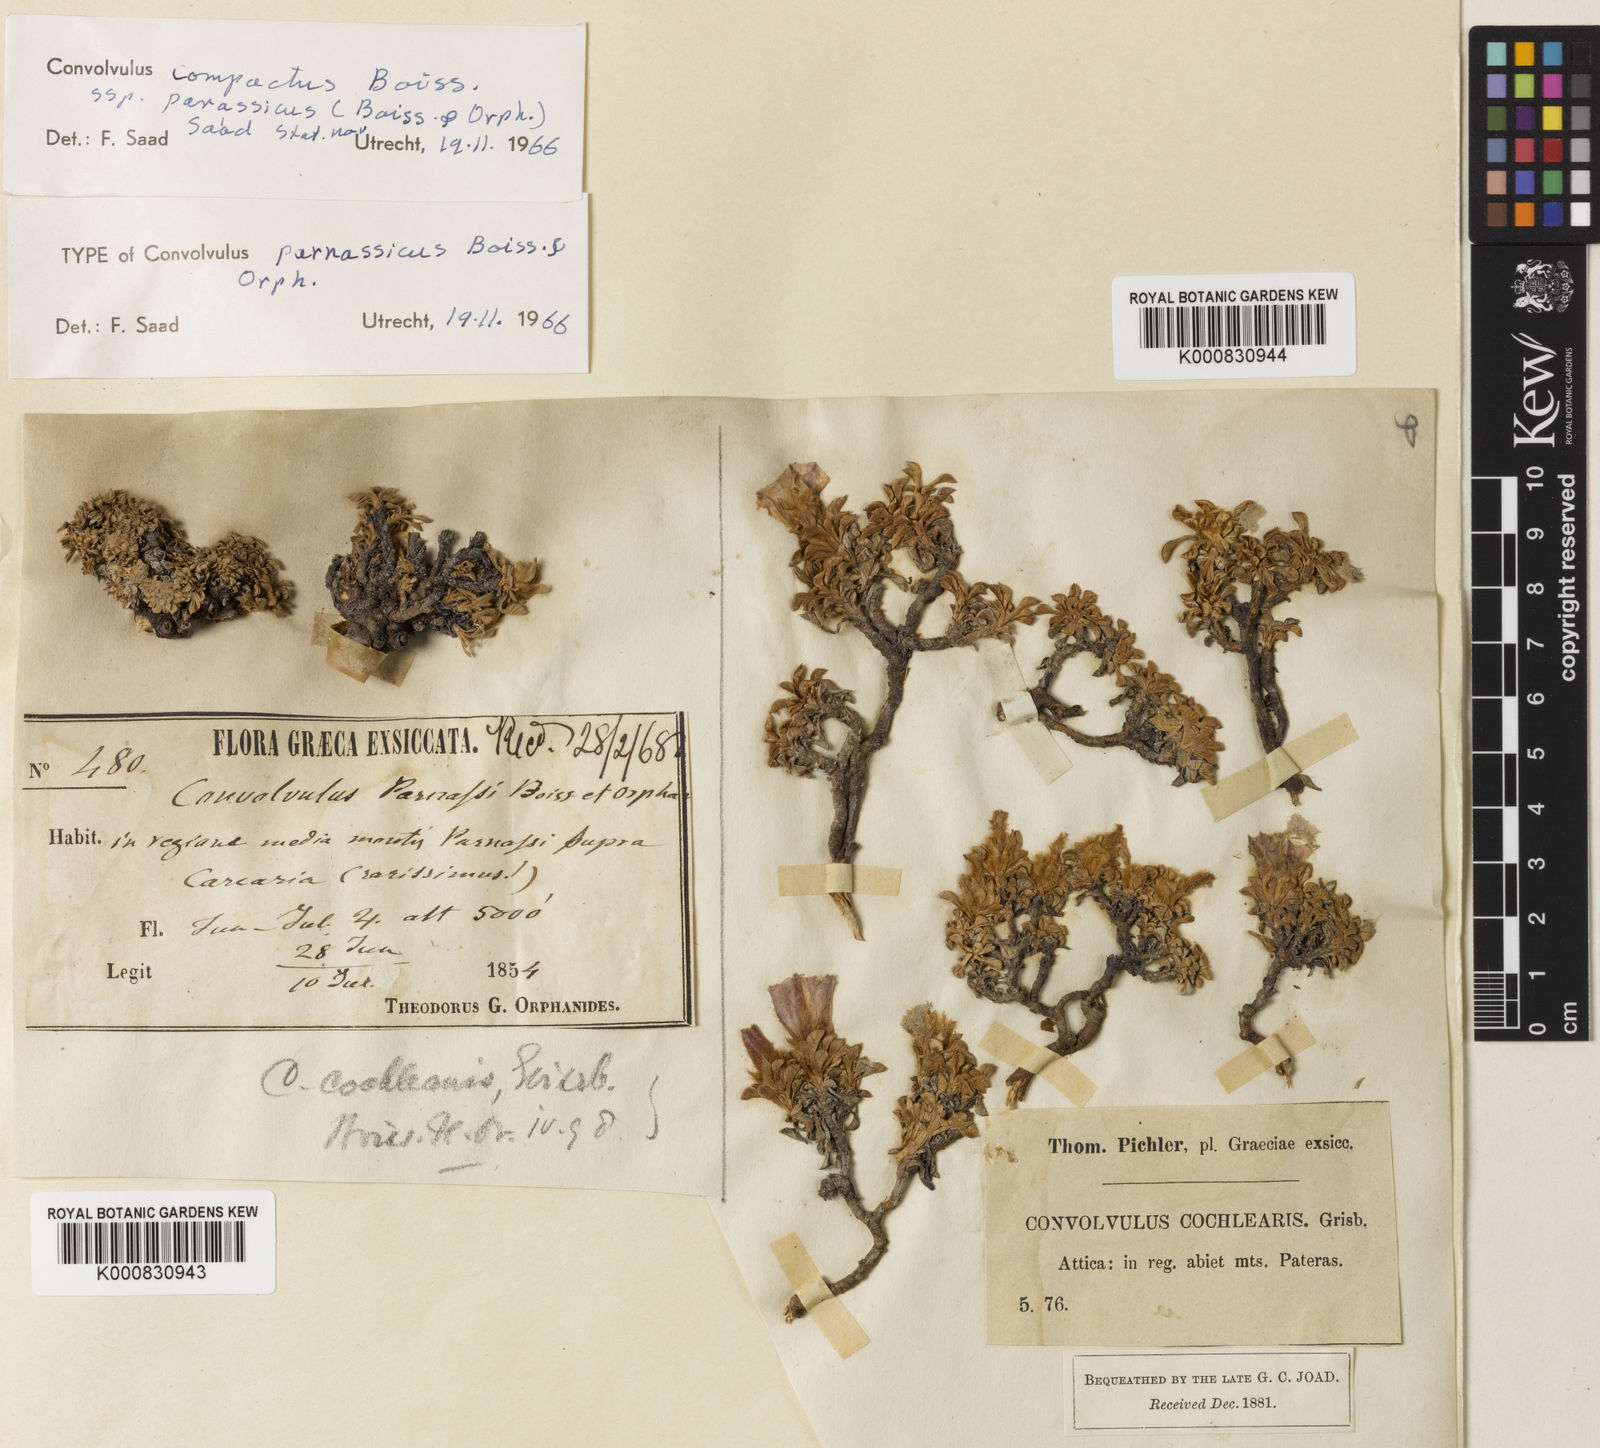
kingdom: Plantae
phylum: Tracheophyta
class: Magnoliopsida
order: Solanales
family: Convolvulaceae
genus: Convolvulus
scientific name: Convolvulus boissieri
